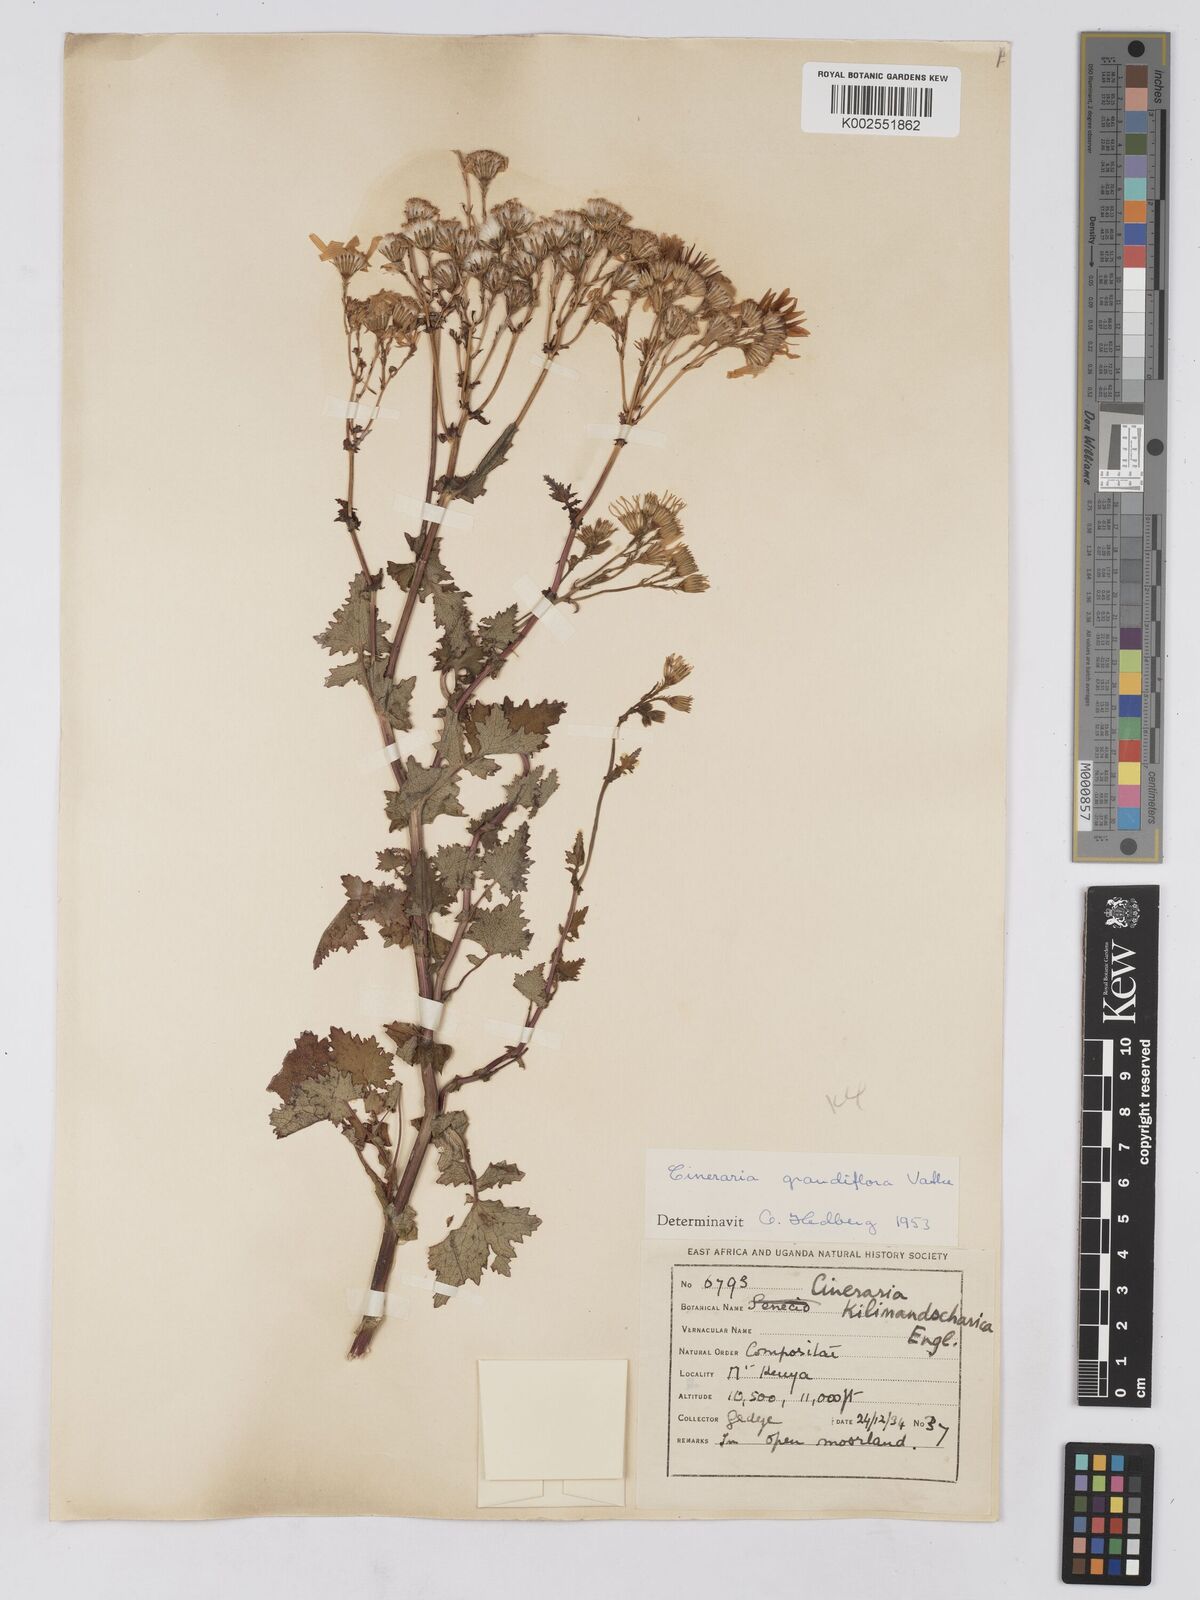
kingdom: Plantae
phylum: Tracheophyta
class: Magnoliopsida
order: Asterales
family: Asteraceae
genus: Cineraria
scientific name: Cineraria deltoidea
